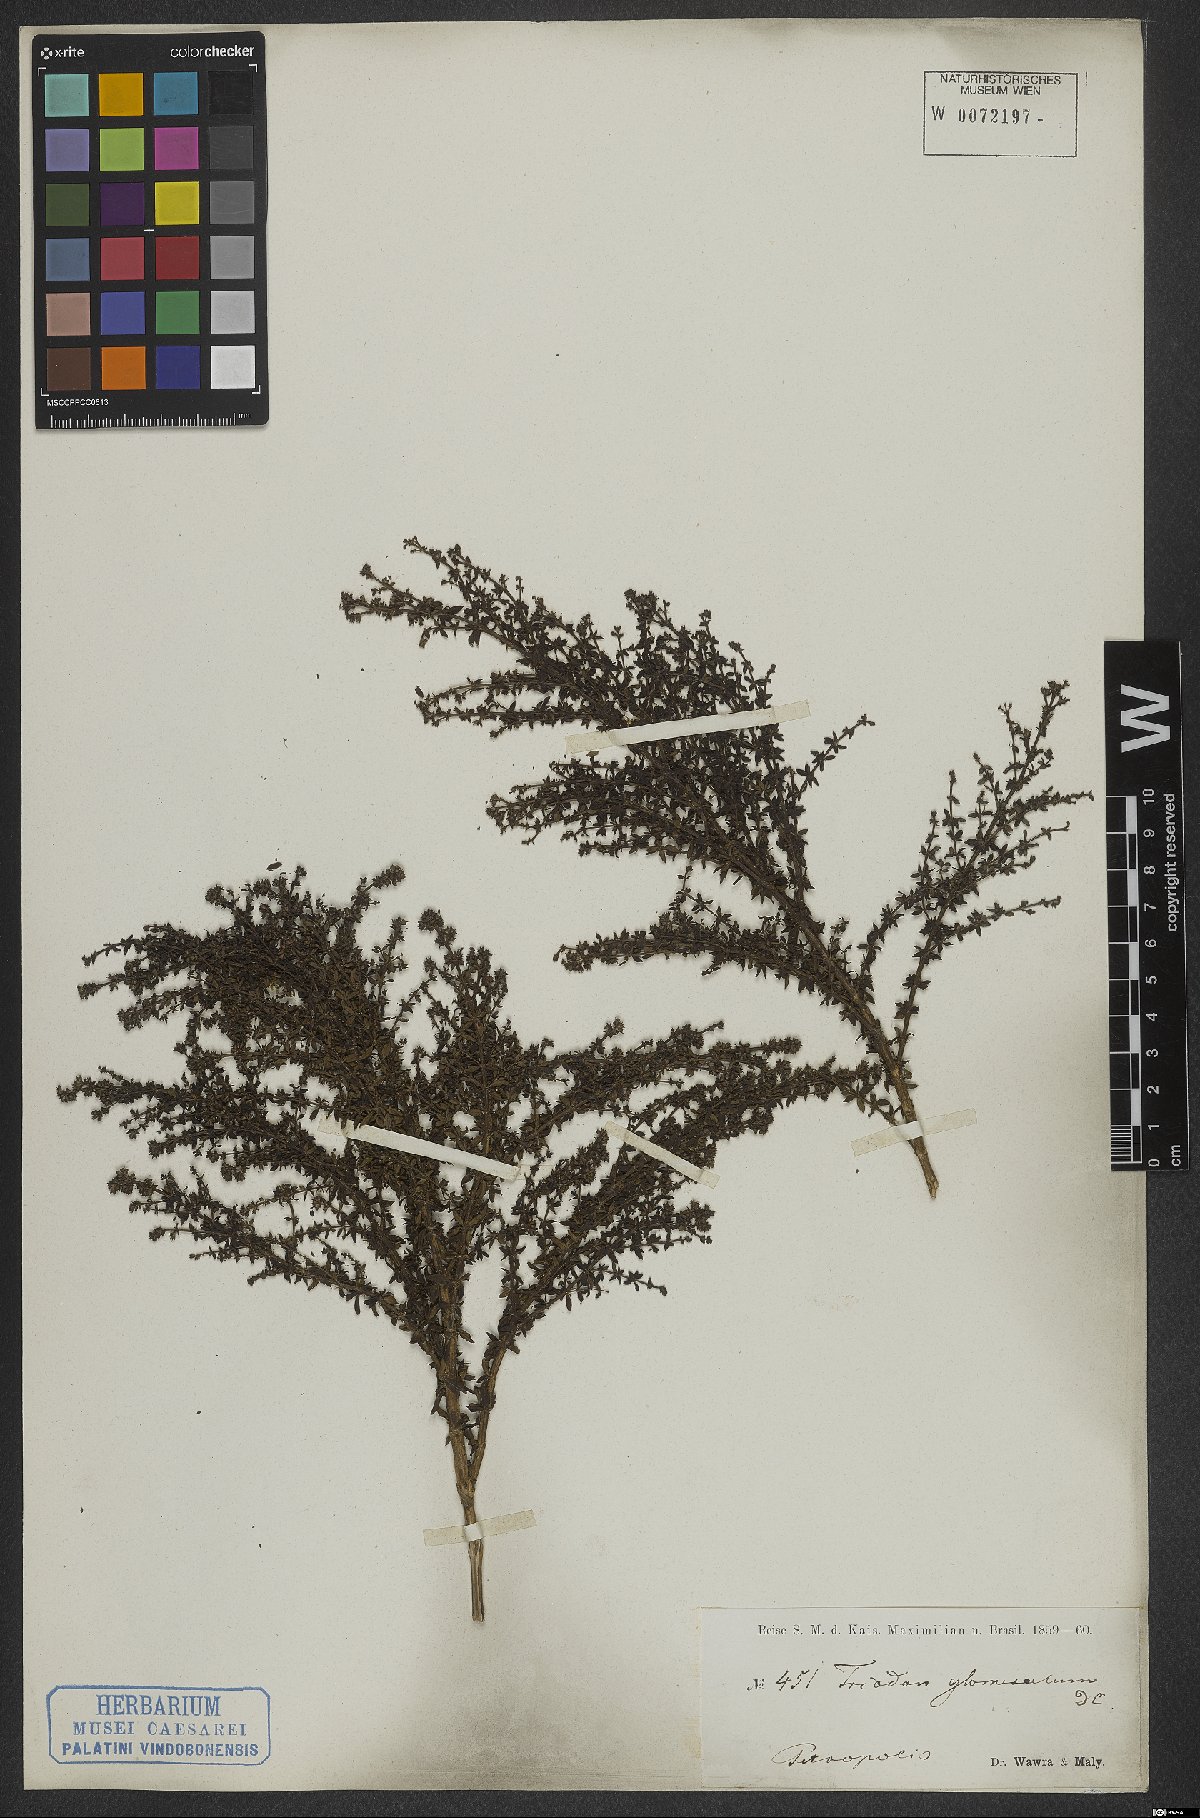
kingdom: Plantae
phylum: Tracheophyta
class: Magnoliopsida
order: Gentianales
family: Rubiaceae
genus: Galianthe
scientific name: Galianthe brasiliensis
